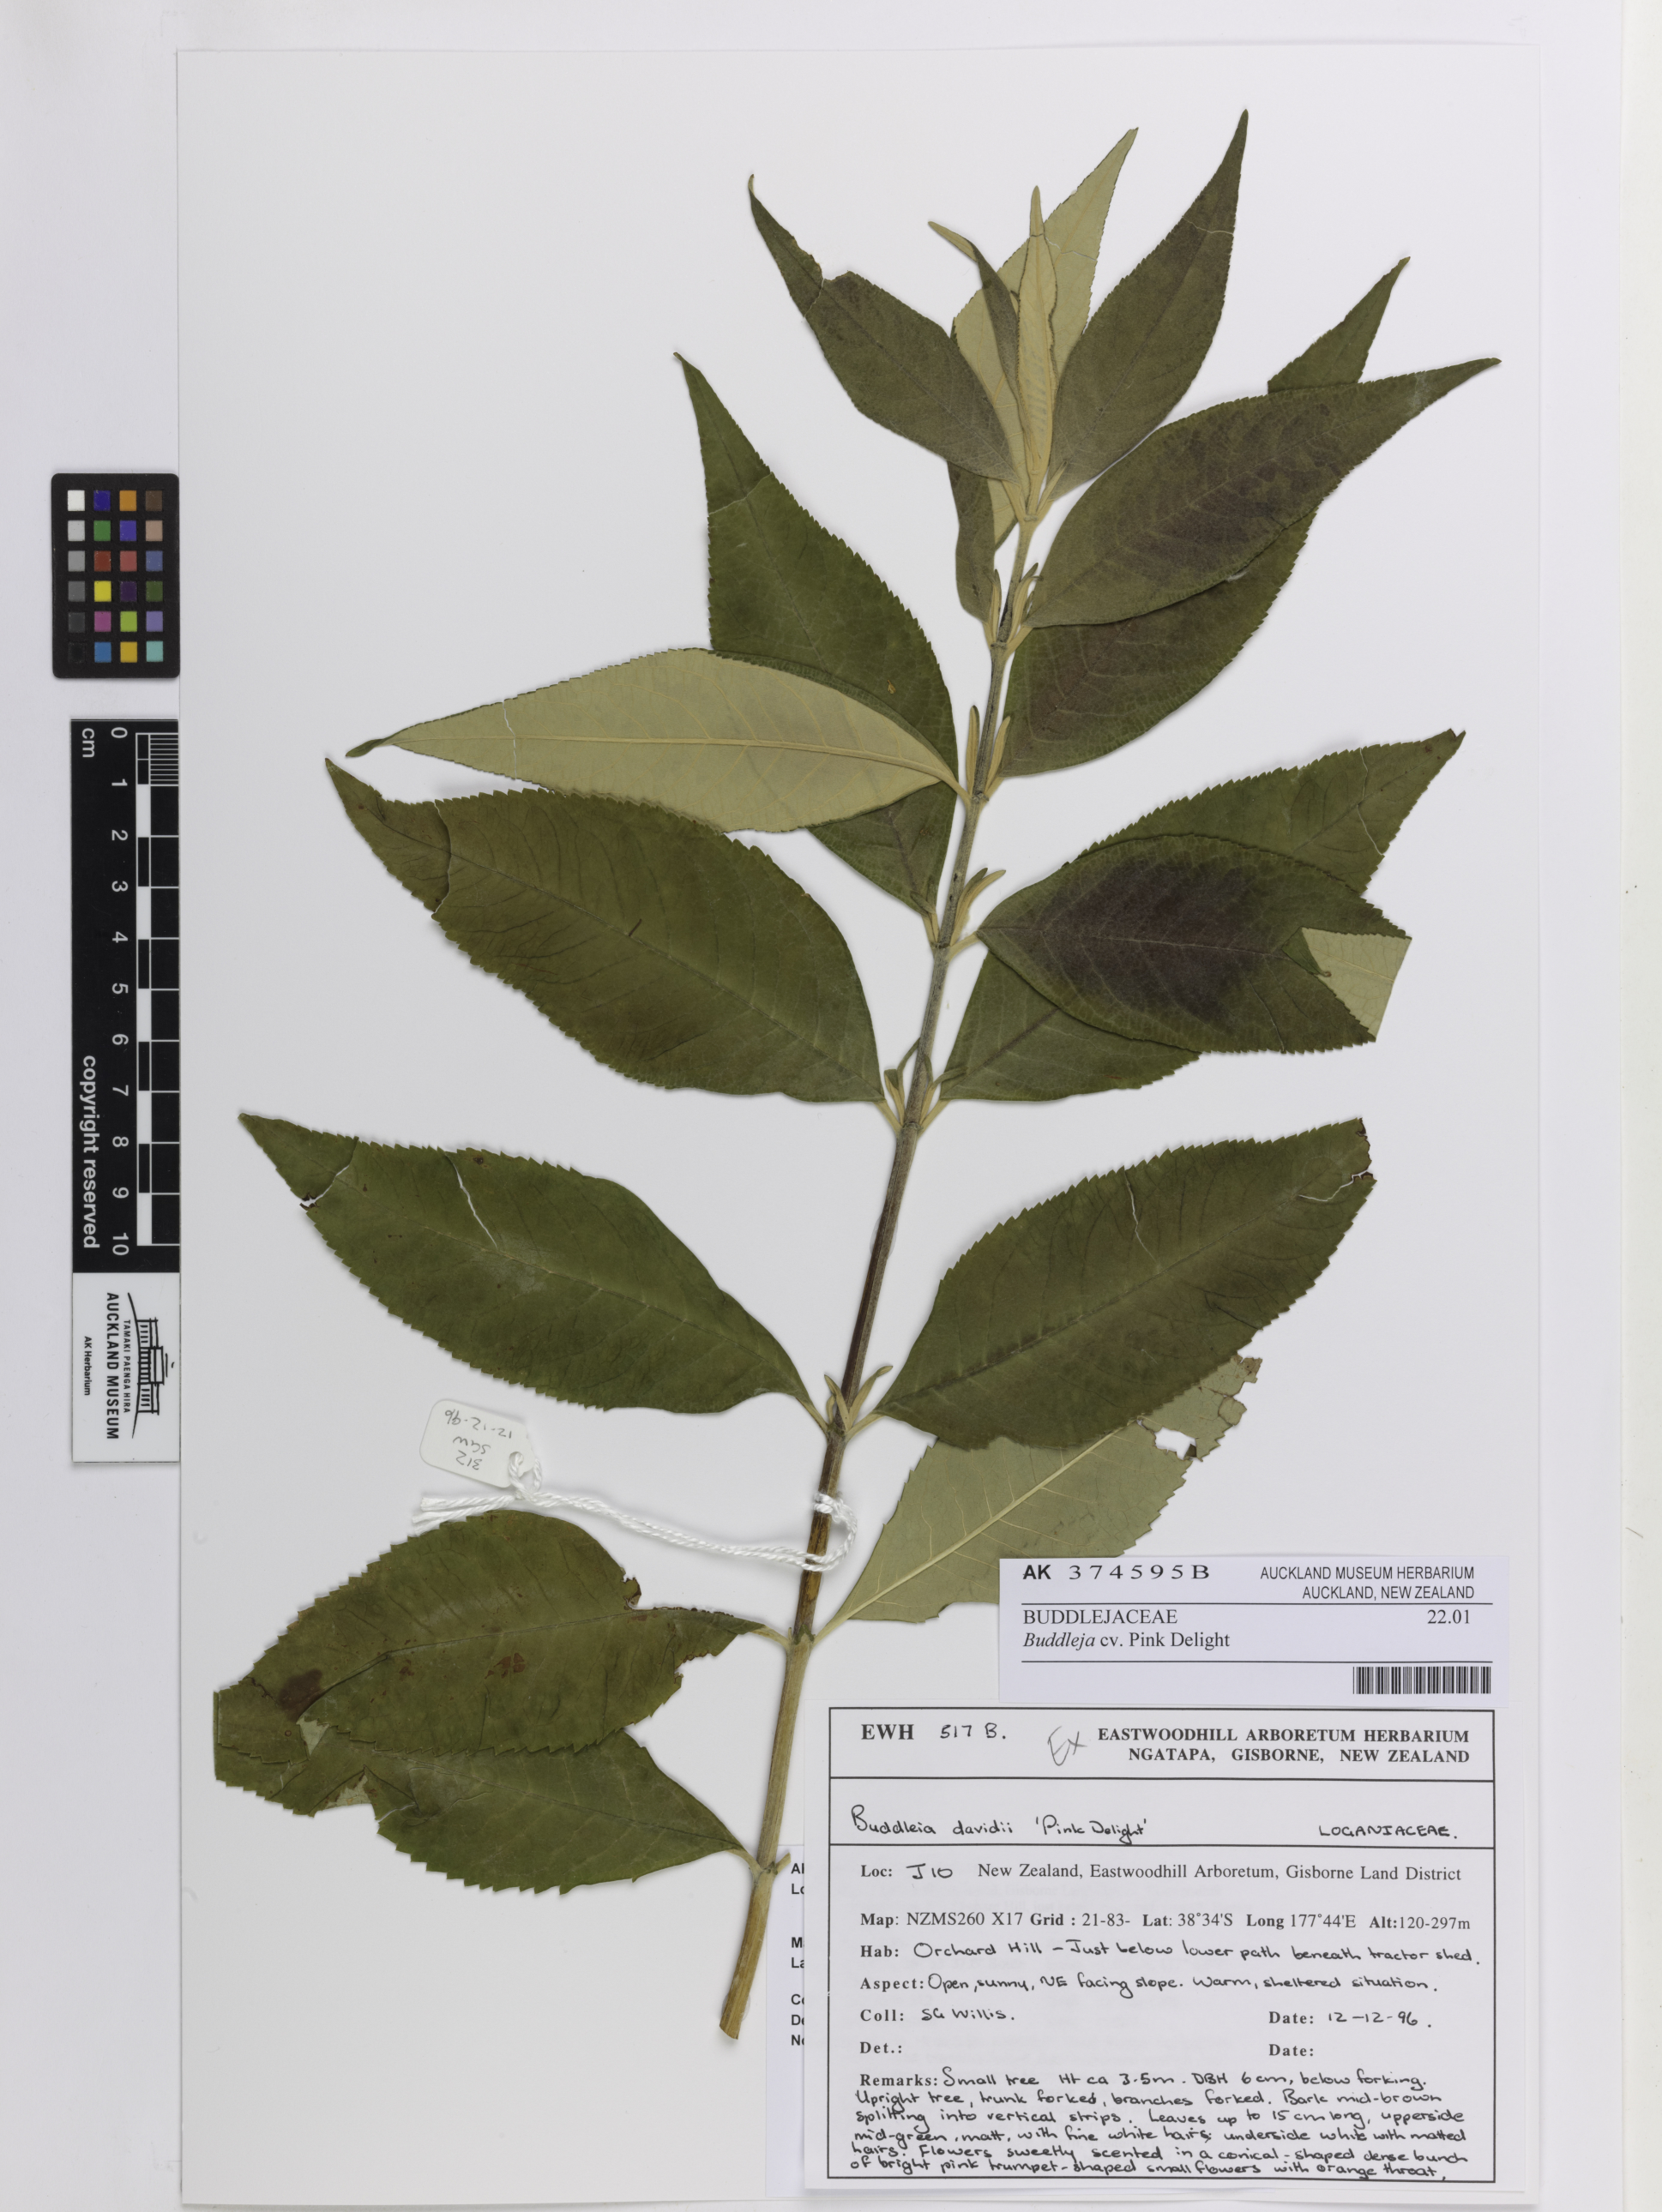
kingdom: Plantae
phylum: Tracheophyta
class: Magnoliopsida
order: Lamiales
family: Scrophulariaceae
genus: Buddleja
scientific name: Buddleja
